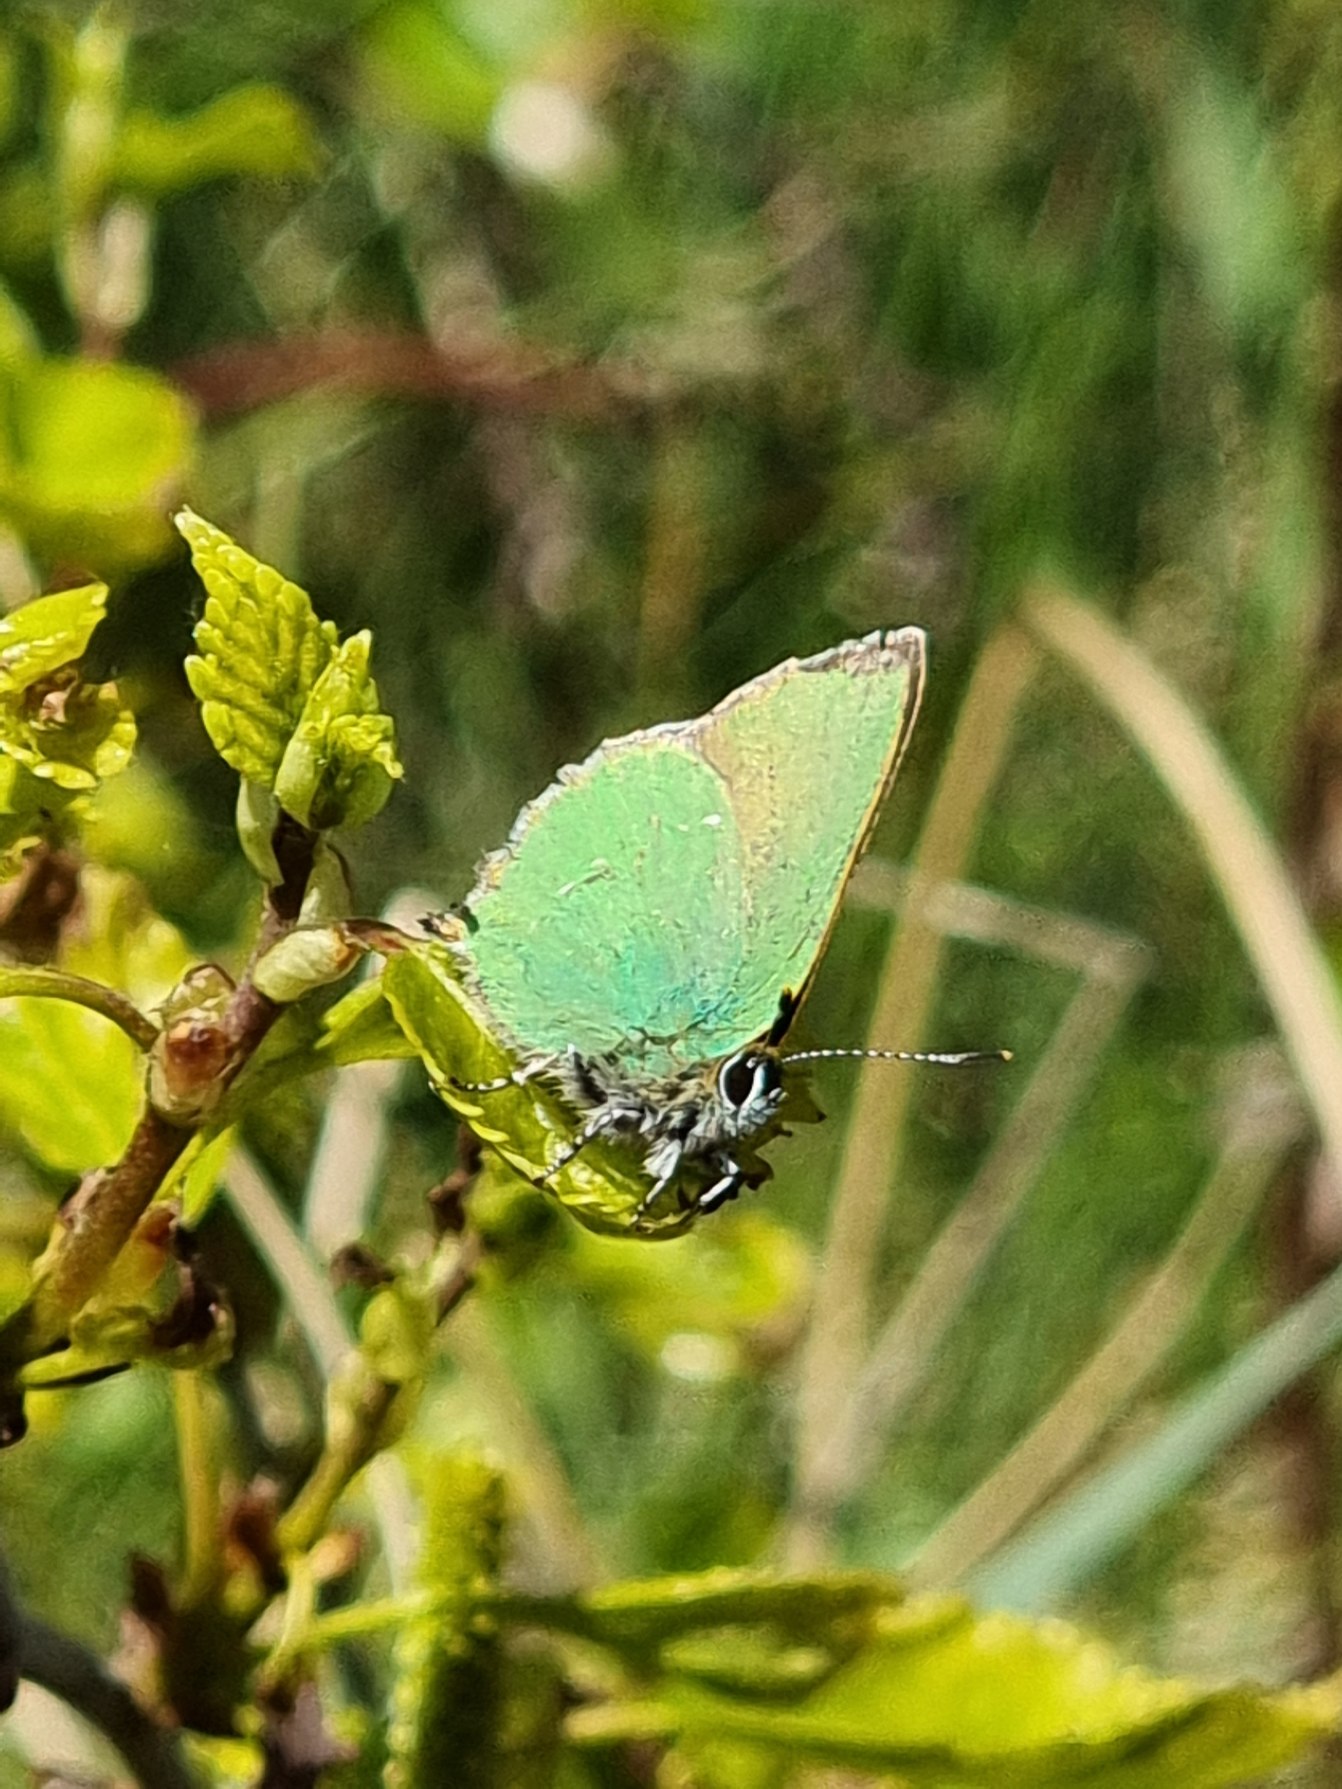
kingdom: Animalia
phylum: Arthropoda
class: Insecta
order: Lepidoptera
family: Lycaenidae
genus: Callophrys
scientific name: Callophrys rubi
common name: Grøn busksommerfugl
